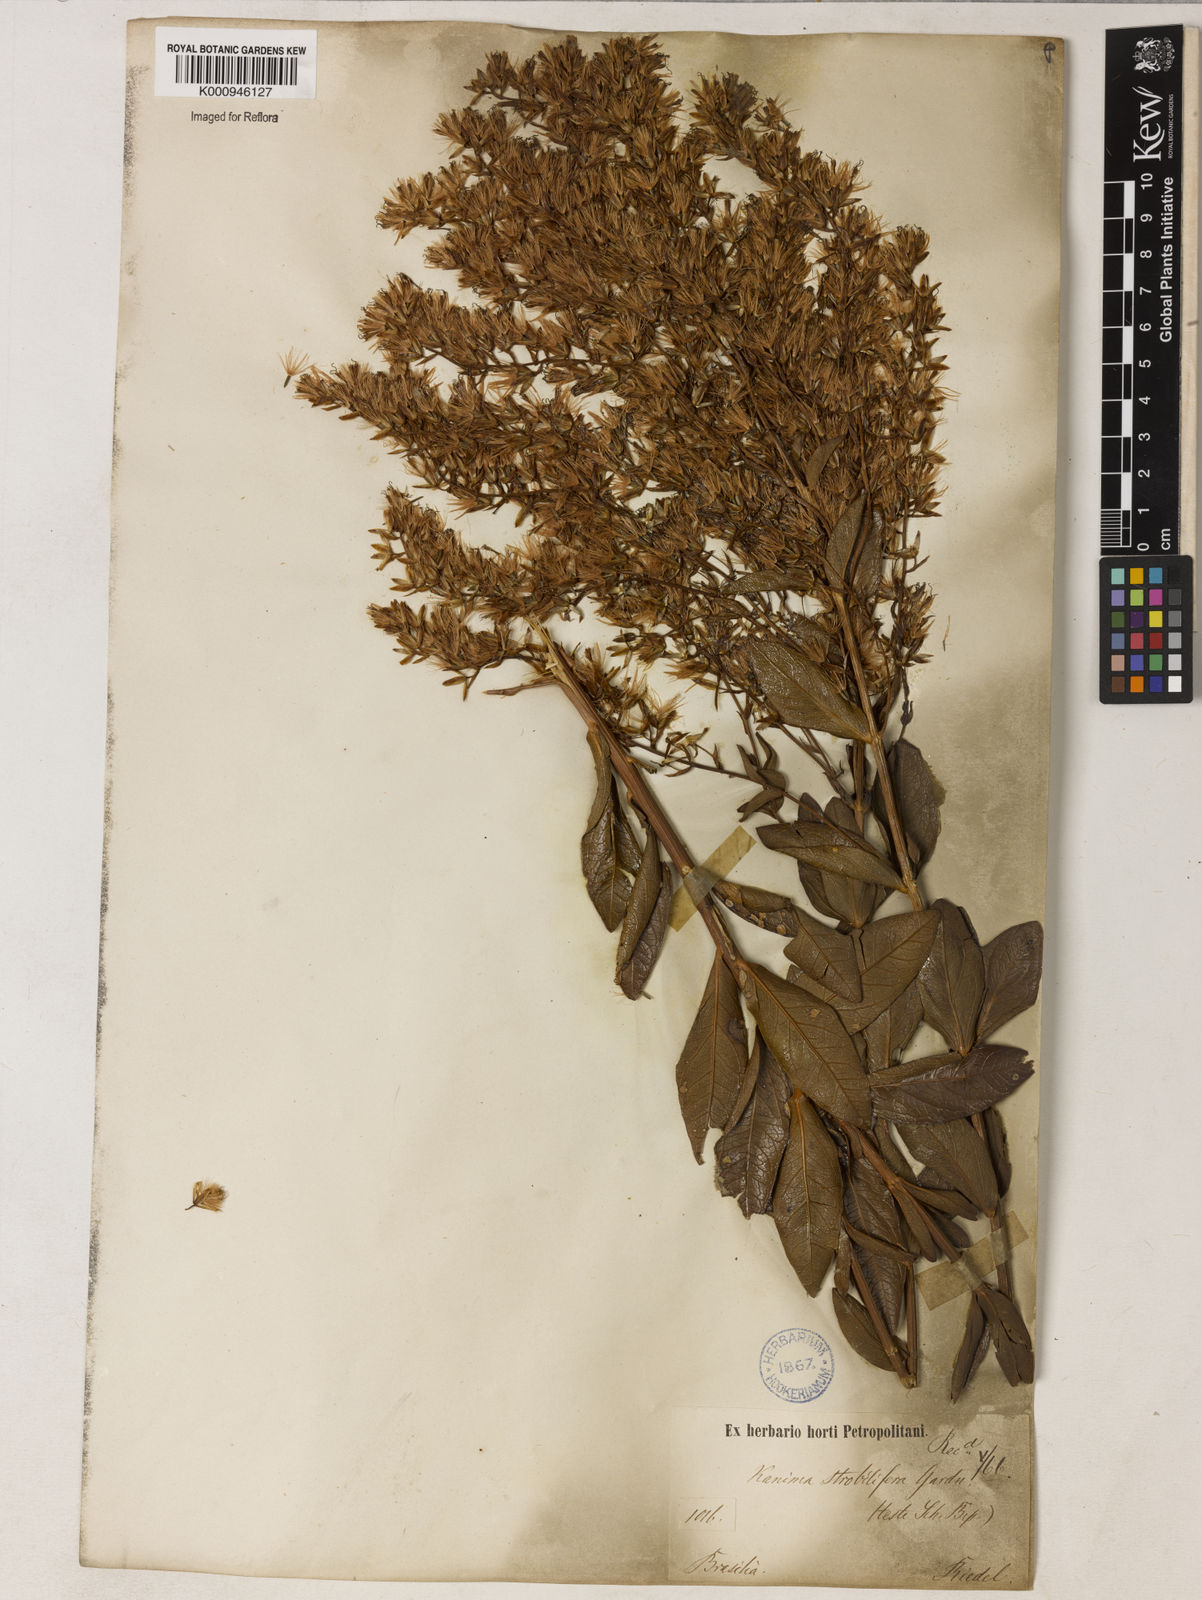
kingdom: Plantae
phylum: Tracheophyta
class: Magnoliopsida
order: Asterales
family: Asteraceae
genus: Mikania
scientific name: Mikania oblongifolia
